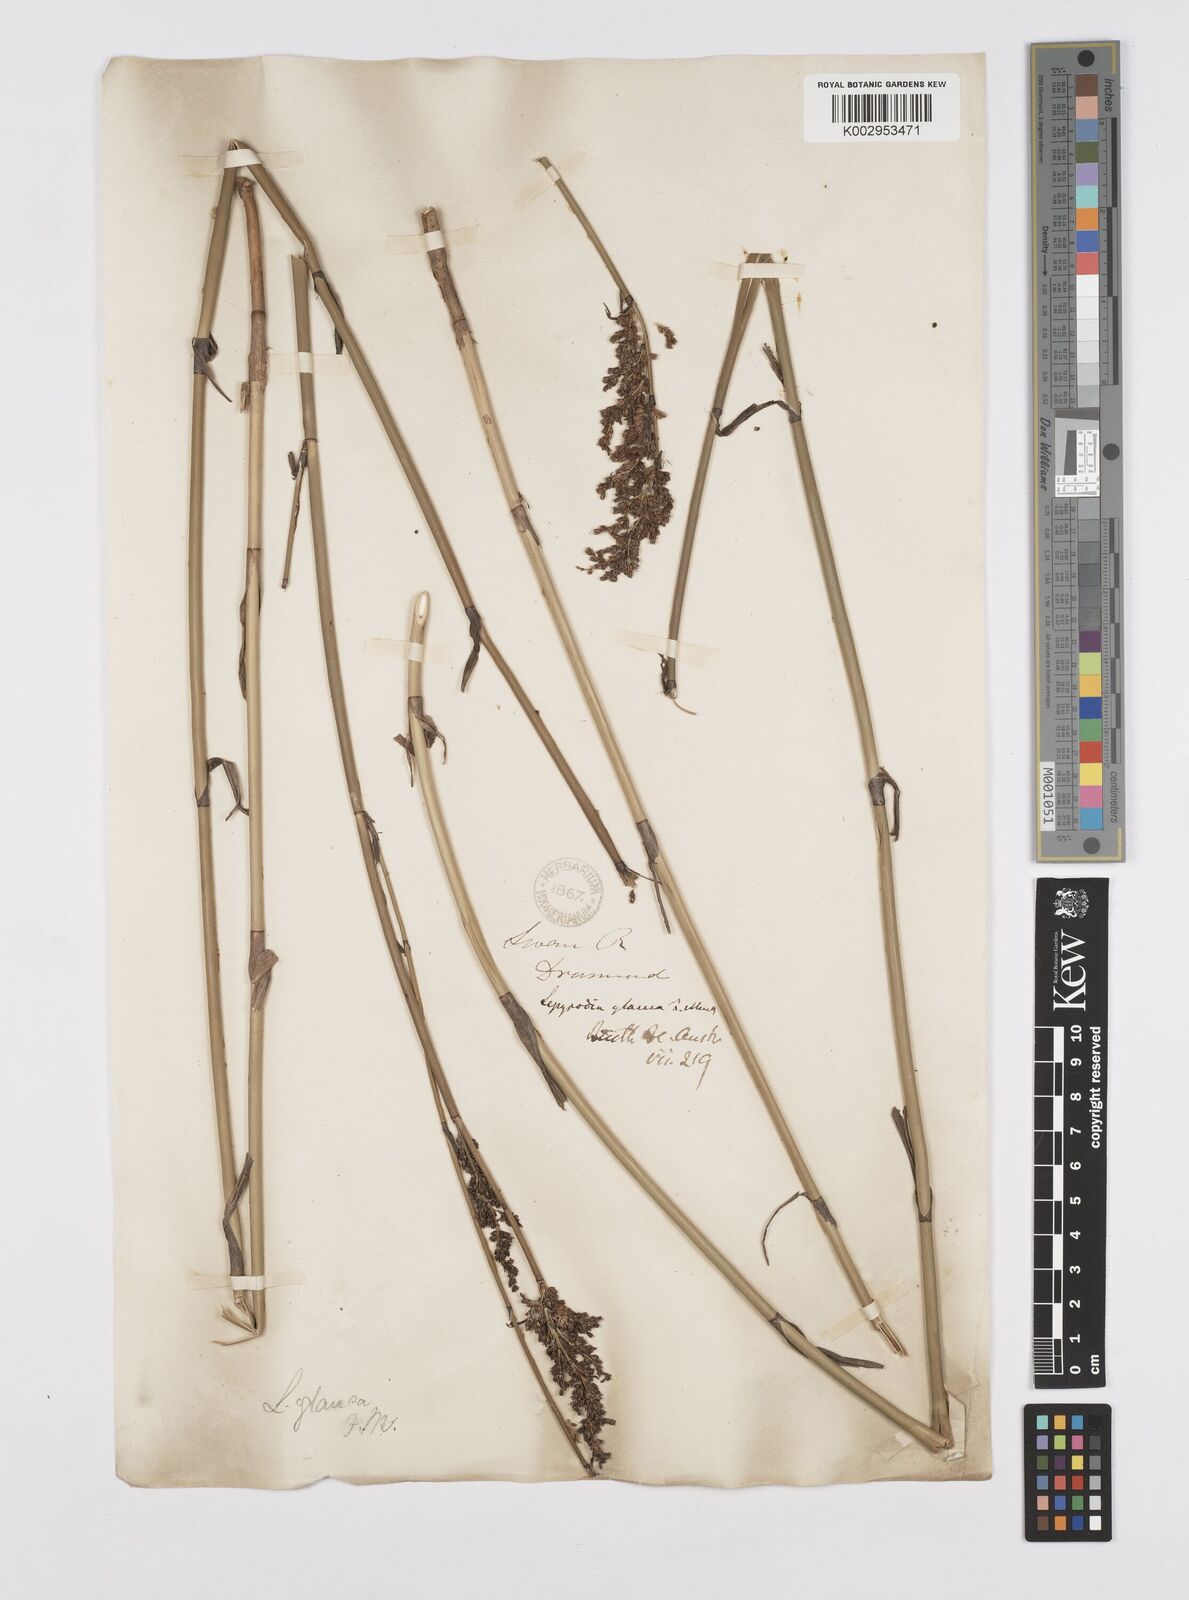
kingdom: Plantae
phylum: Tracheophyta
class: Liliopsida
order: Poales
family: Restionaceae
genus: Lepyrodia
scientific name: Lepyrodia glauca
